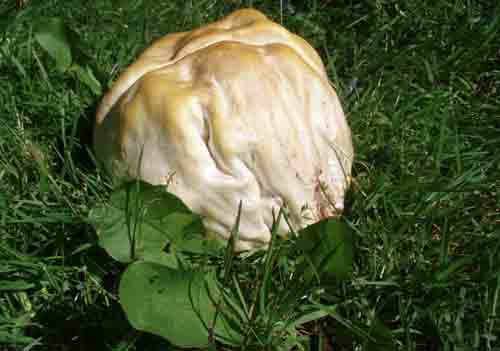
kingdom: Fungi
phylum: Basidiomycota
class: Agaricomycetes
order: Agaricales
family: Agaricaceae
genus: Agaricus
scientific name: Agaricus arvensis
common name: ager-champignon
